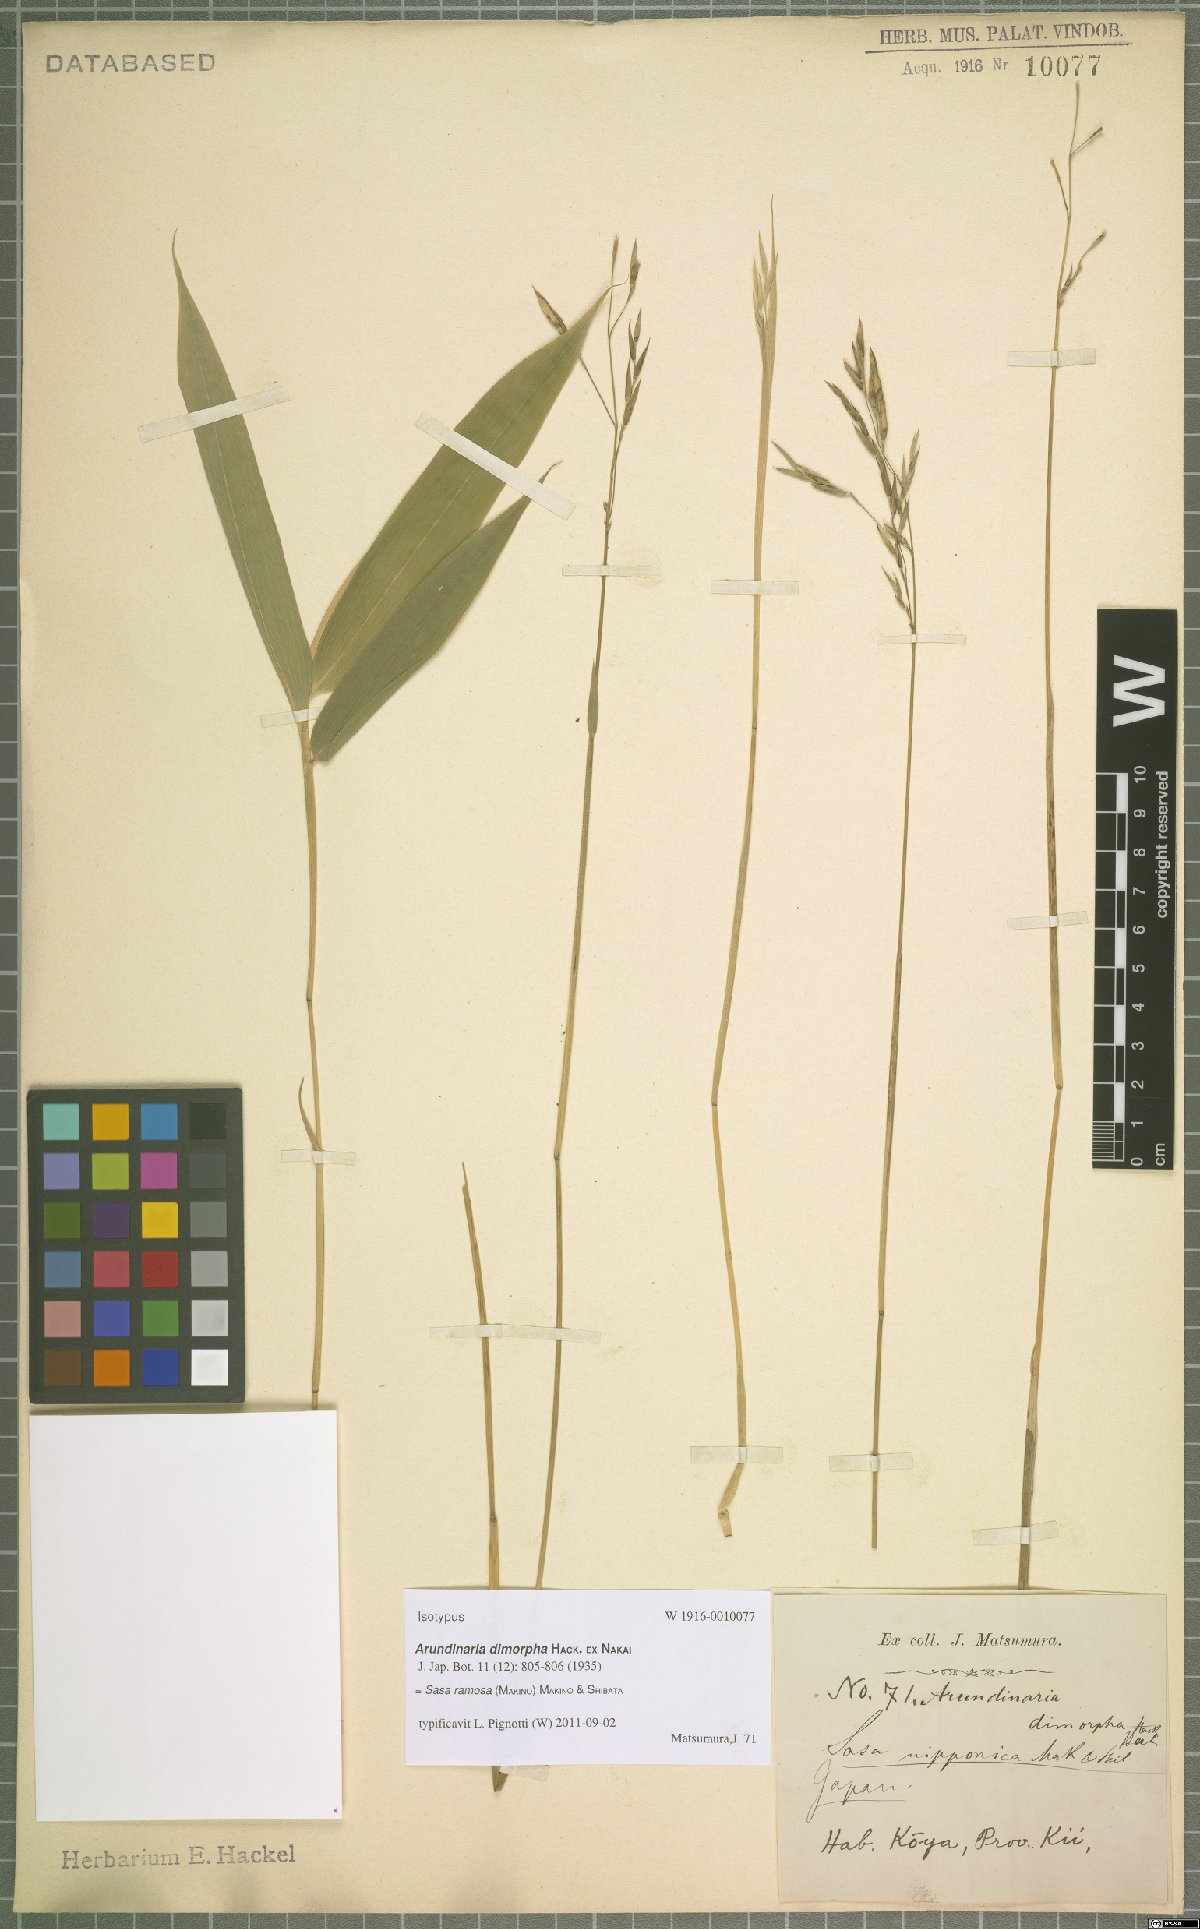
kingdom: Plantae
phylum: Tracheophyta
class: Liliopsida
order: Poales
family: Poaceae
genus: Sasaella
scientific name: Sasaella ramosa
